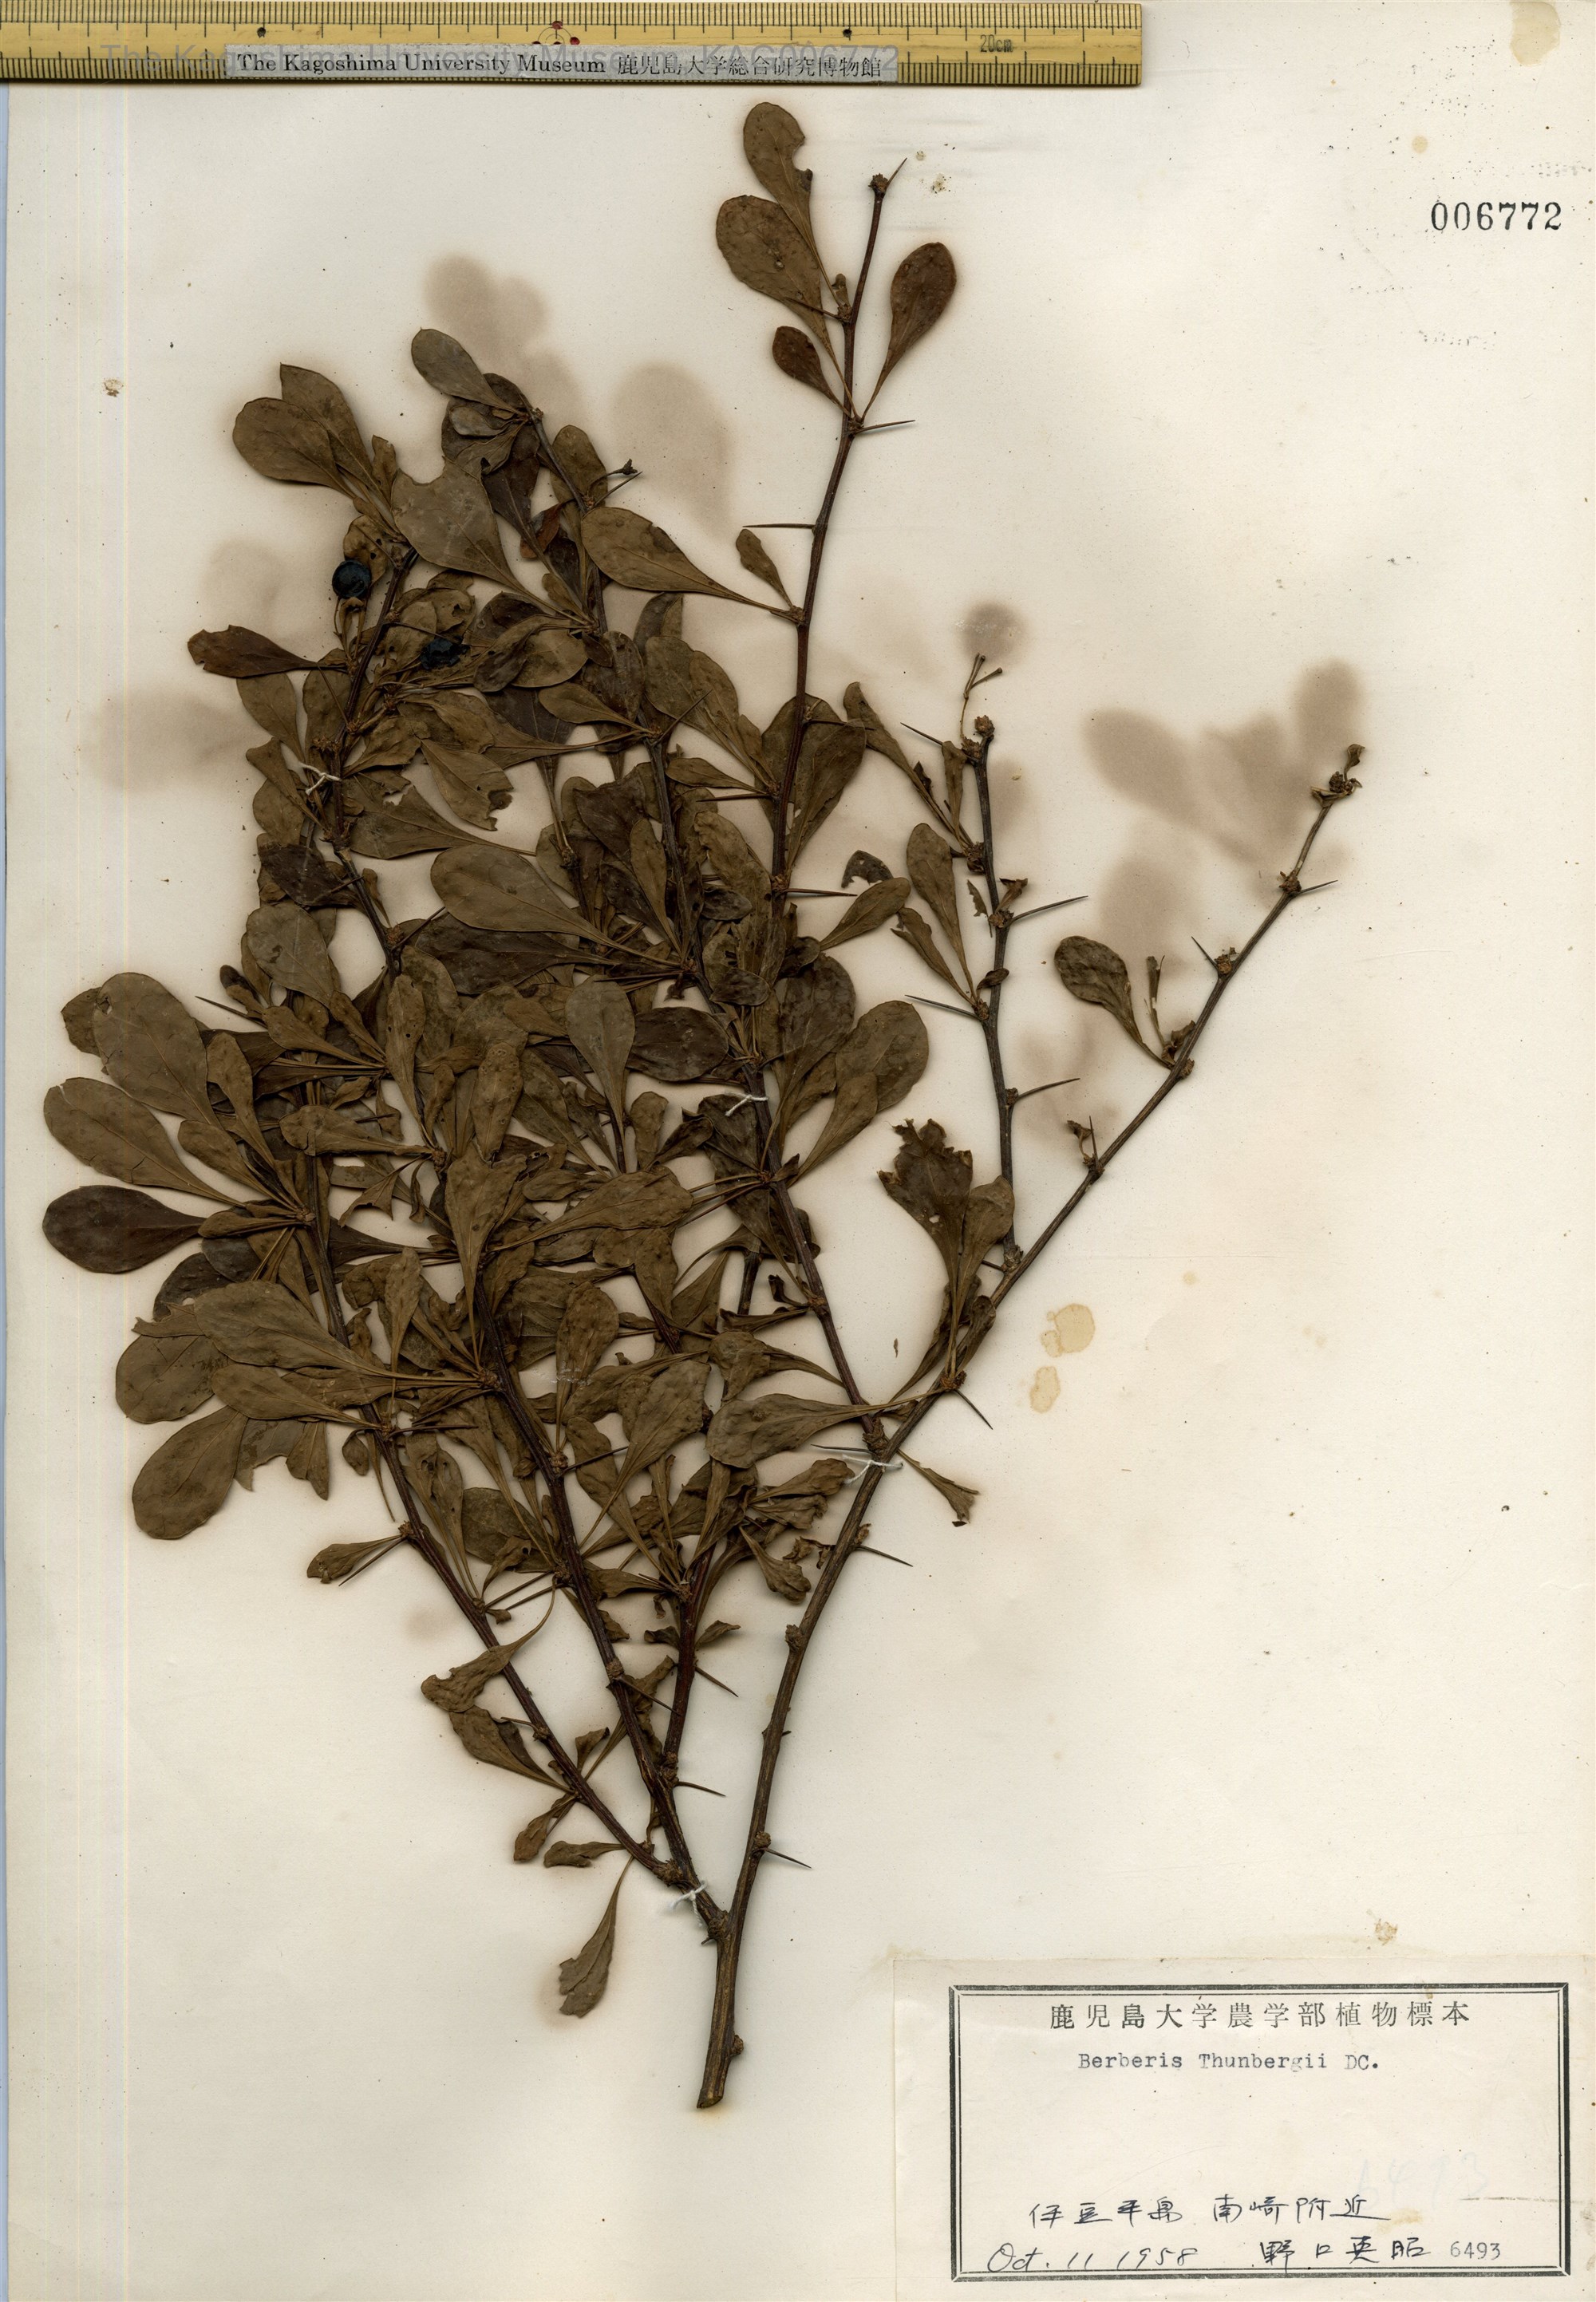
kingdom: Plantae
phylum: Tracheophyta
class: Magnoliopsida
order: Ranunculales
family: Berberidaceae
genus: Berberis
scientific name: Berberis thunbergii
